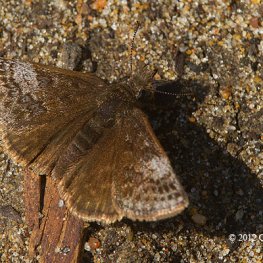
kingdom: Animalia
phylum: Arthropoda
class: Insecta
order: Lepidoptera
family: Hesperiidae
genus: Erynnis
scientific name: Erynnis icelus
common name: Dreamy Duskywing
